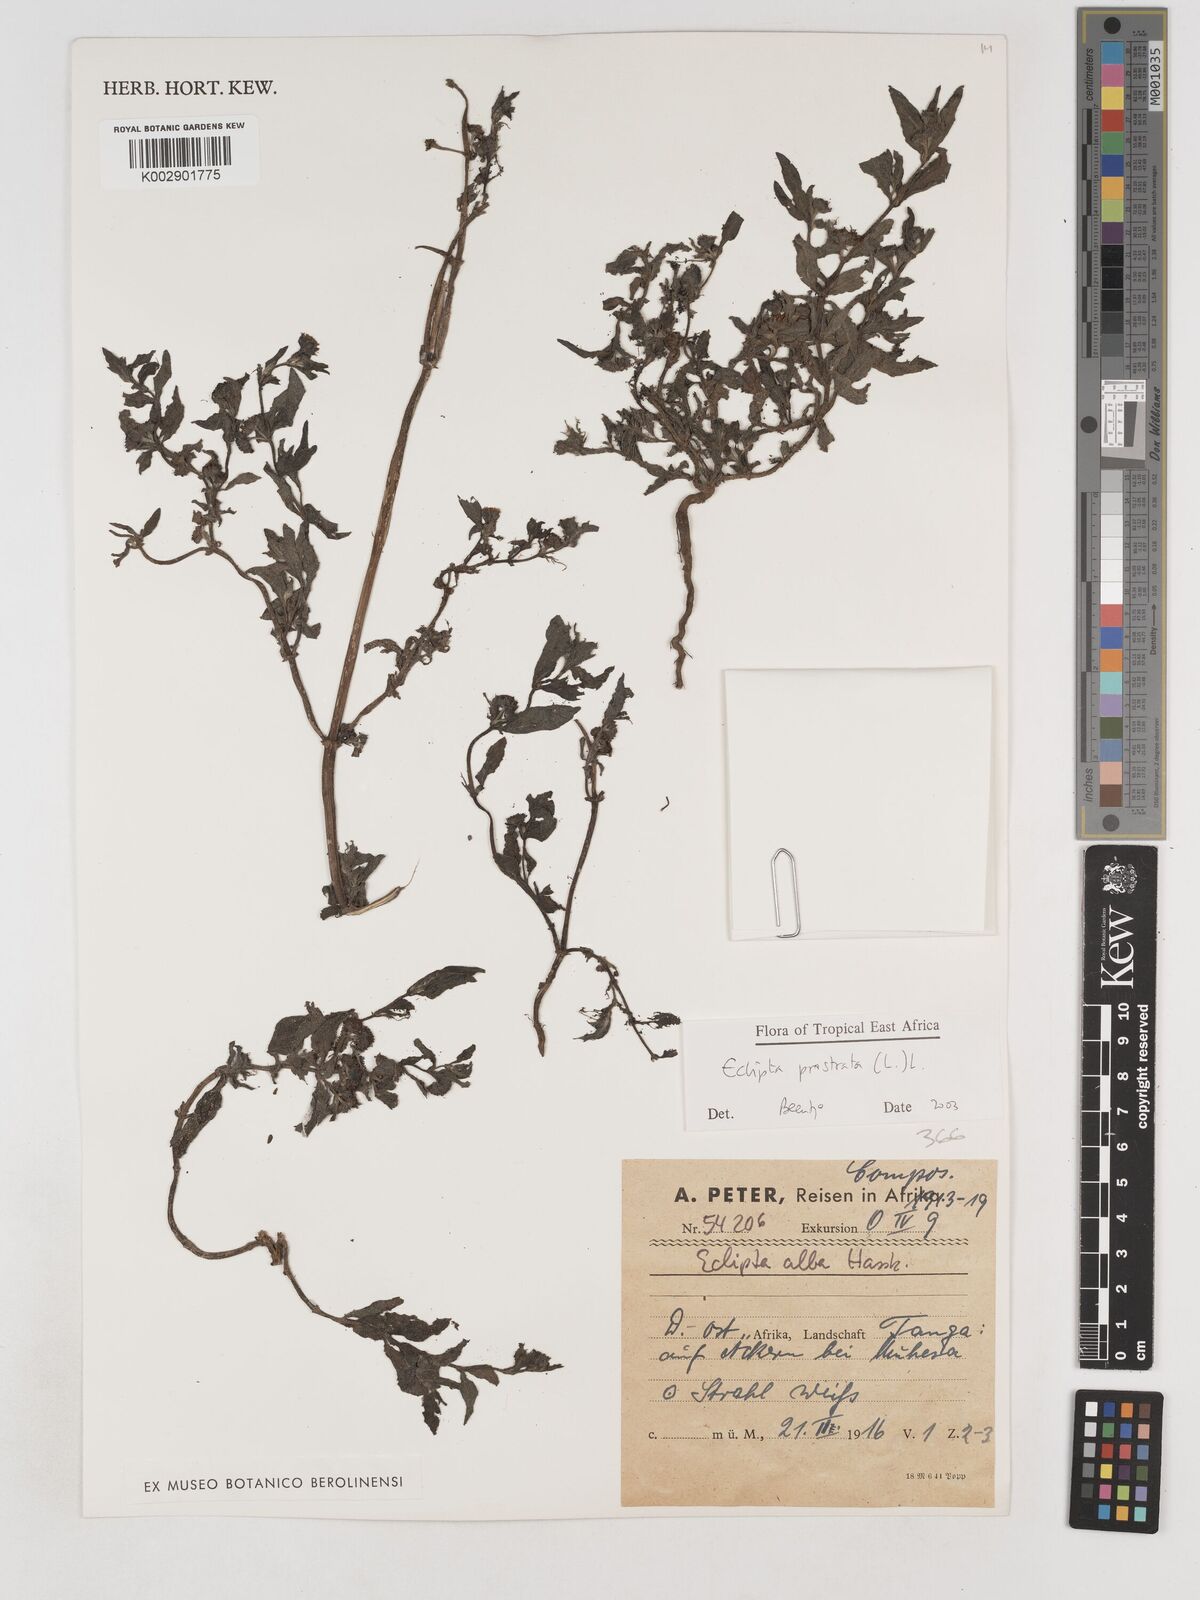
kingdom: Plantae
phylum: Tracheophyta
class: Magnoliopsida
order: Asterales
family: Asteraceae
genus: Eclipta
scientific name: Eclipta alba
